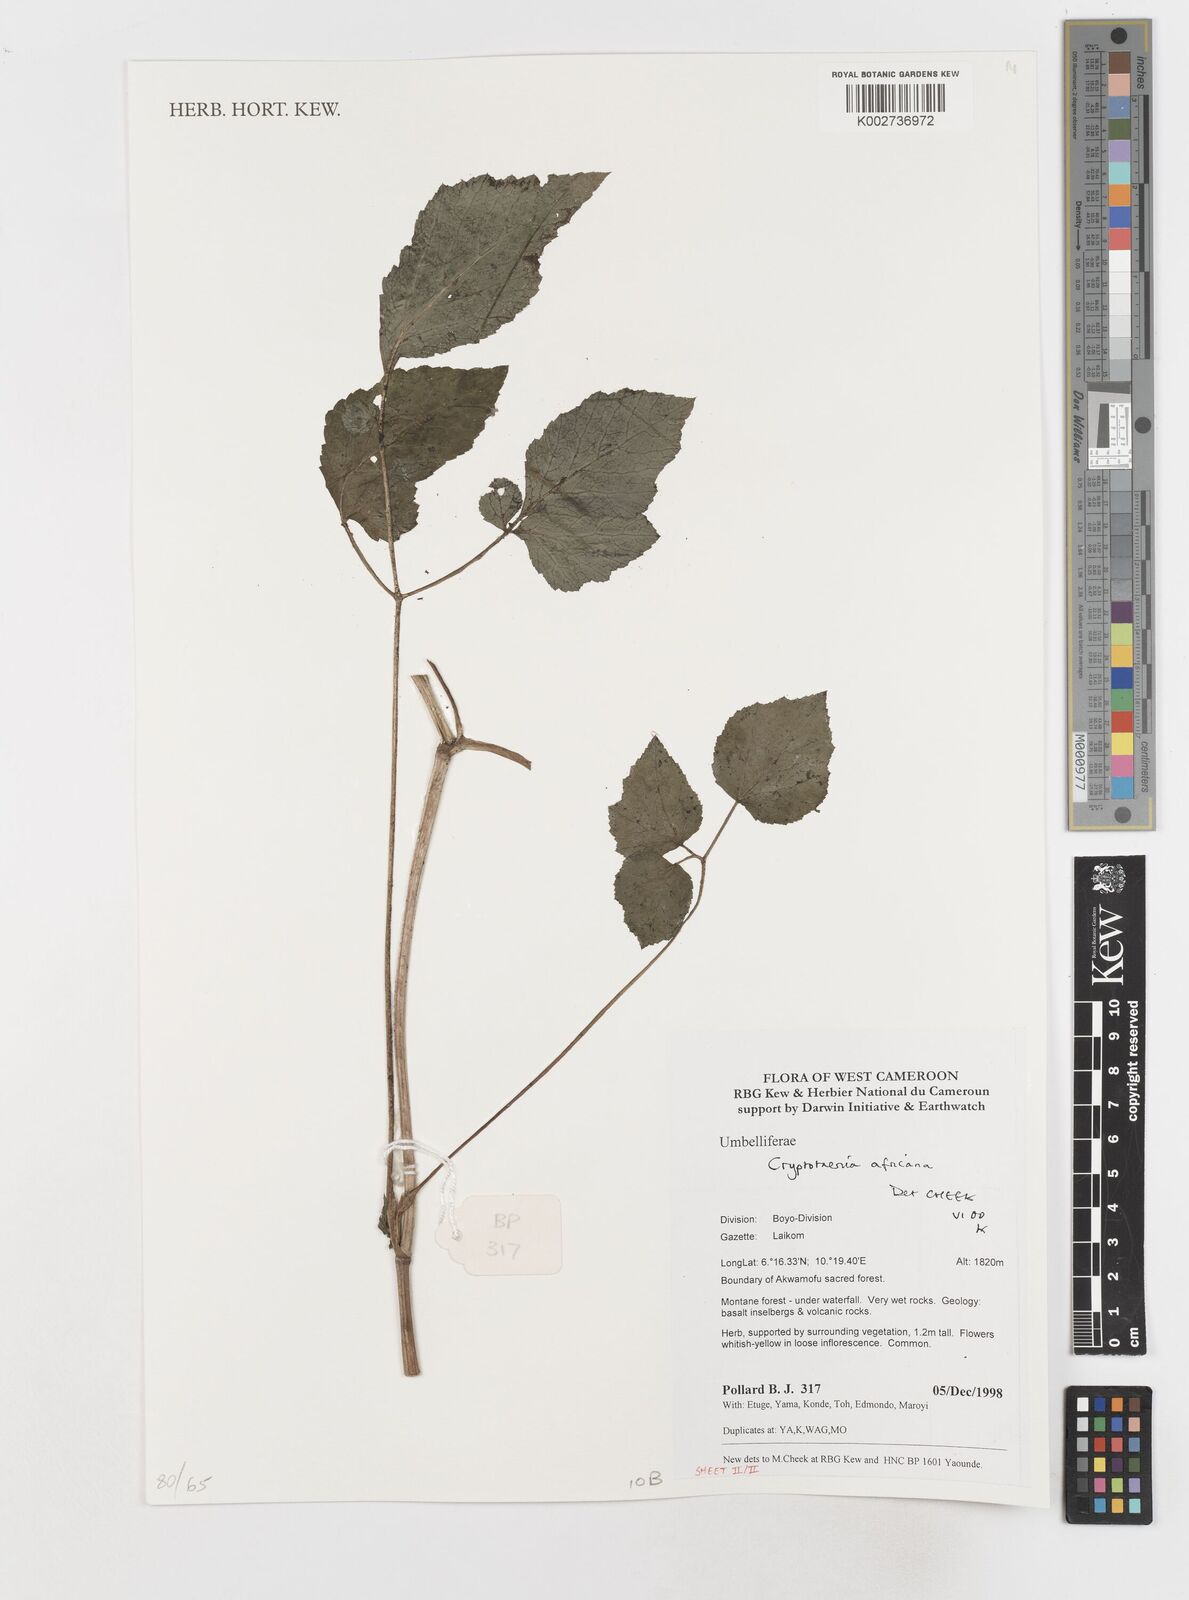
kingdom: Plantae
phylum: Tracheophyta
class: Magnoliopsida
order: Apiales
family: Apiaceae
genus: Cryptotaenia
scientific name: Cryptotaenia africana
